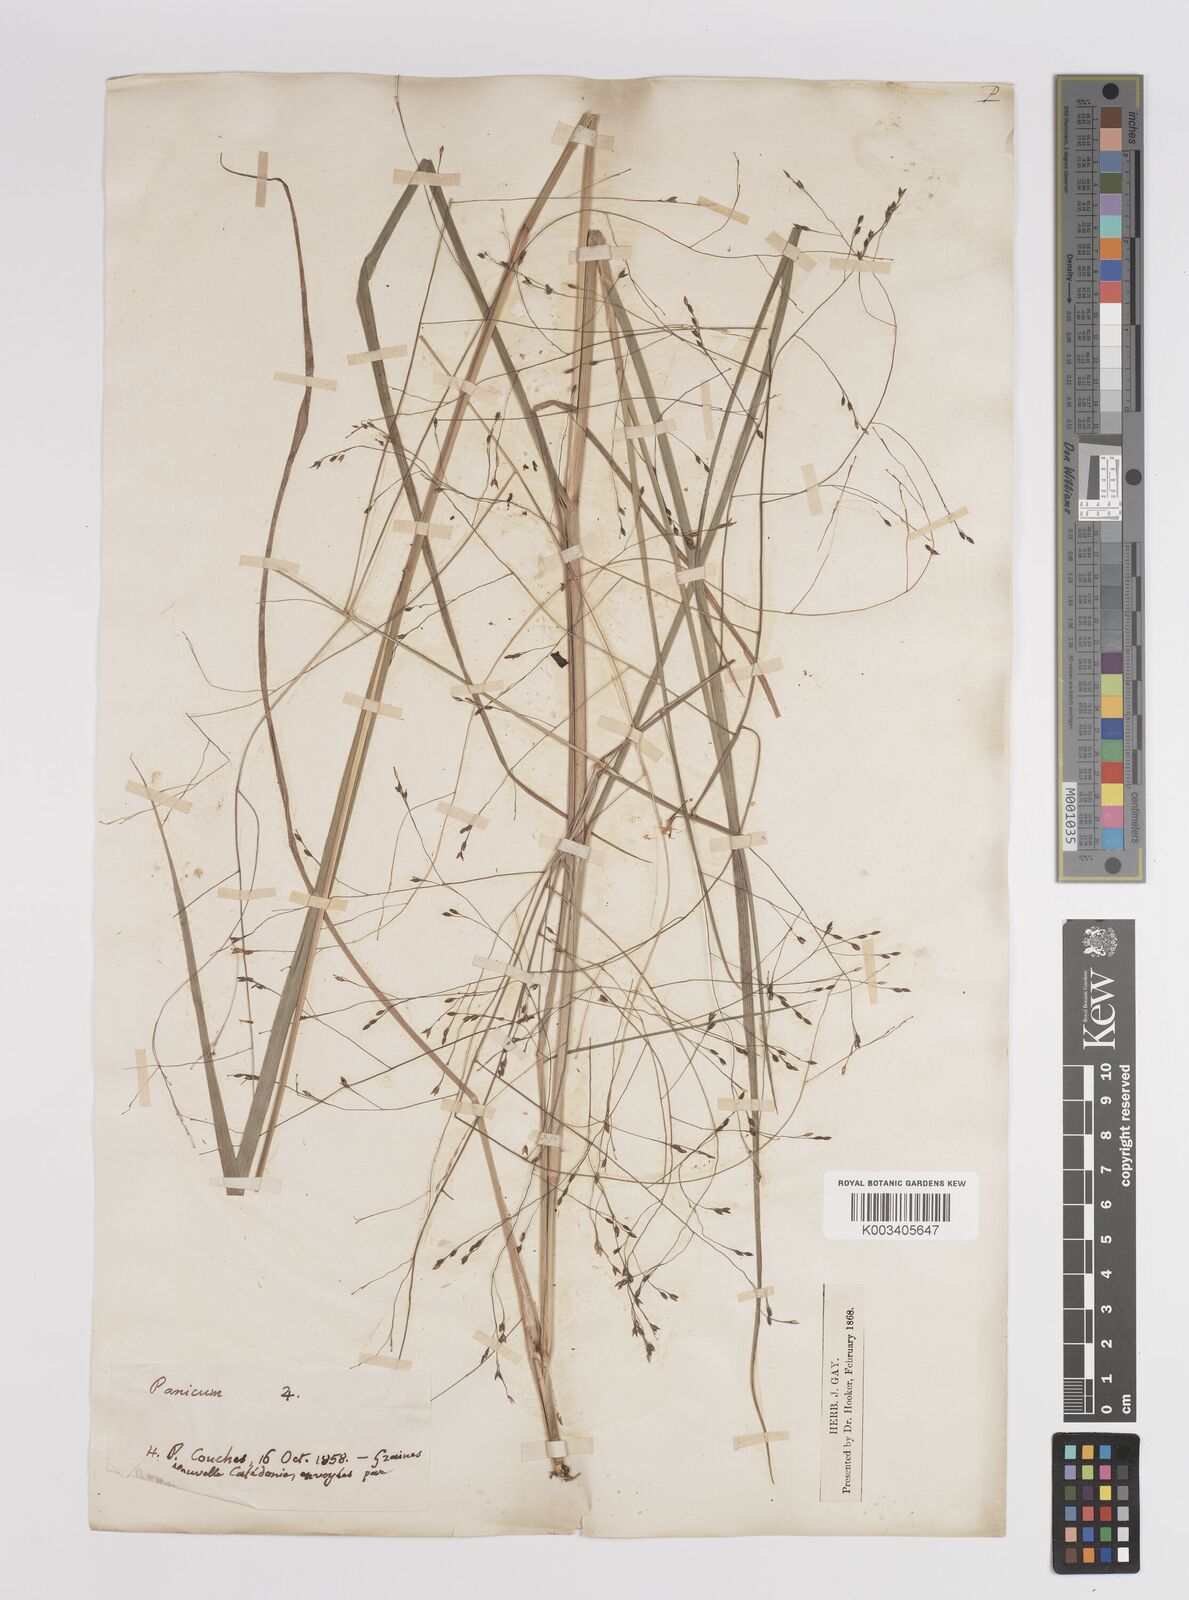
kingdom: Plantae
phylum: Tracheophyta
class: Liliopsida
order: Poales
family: Poaceae
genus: Panicum
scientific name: Panicum decompositum
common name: Australian millet
